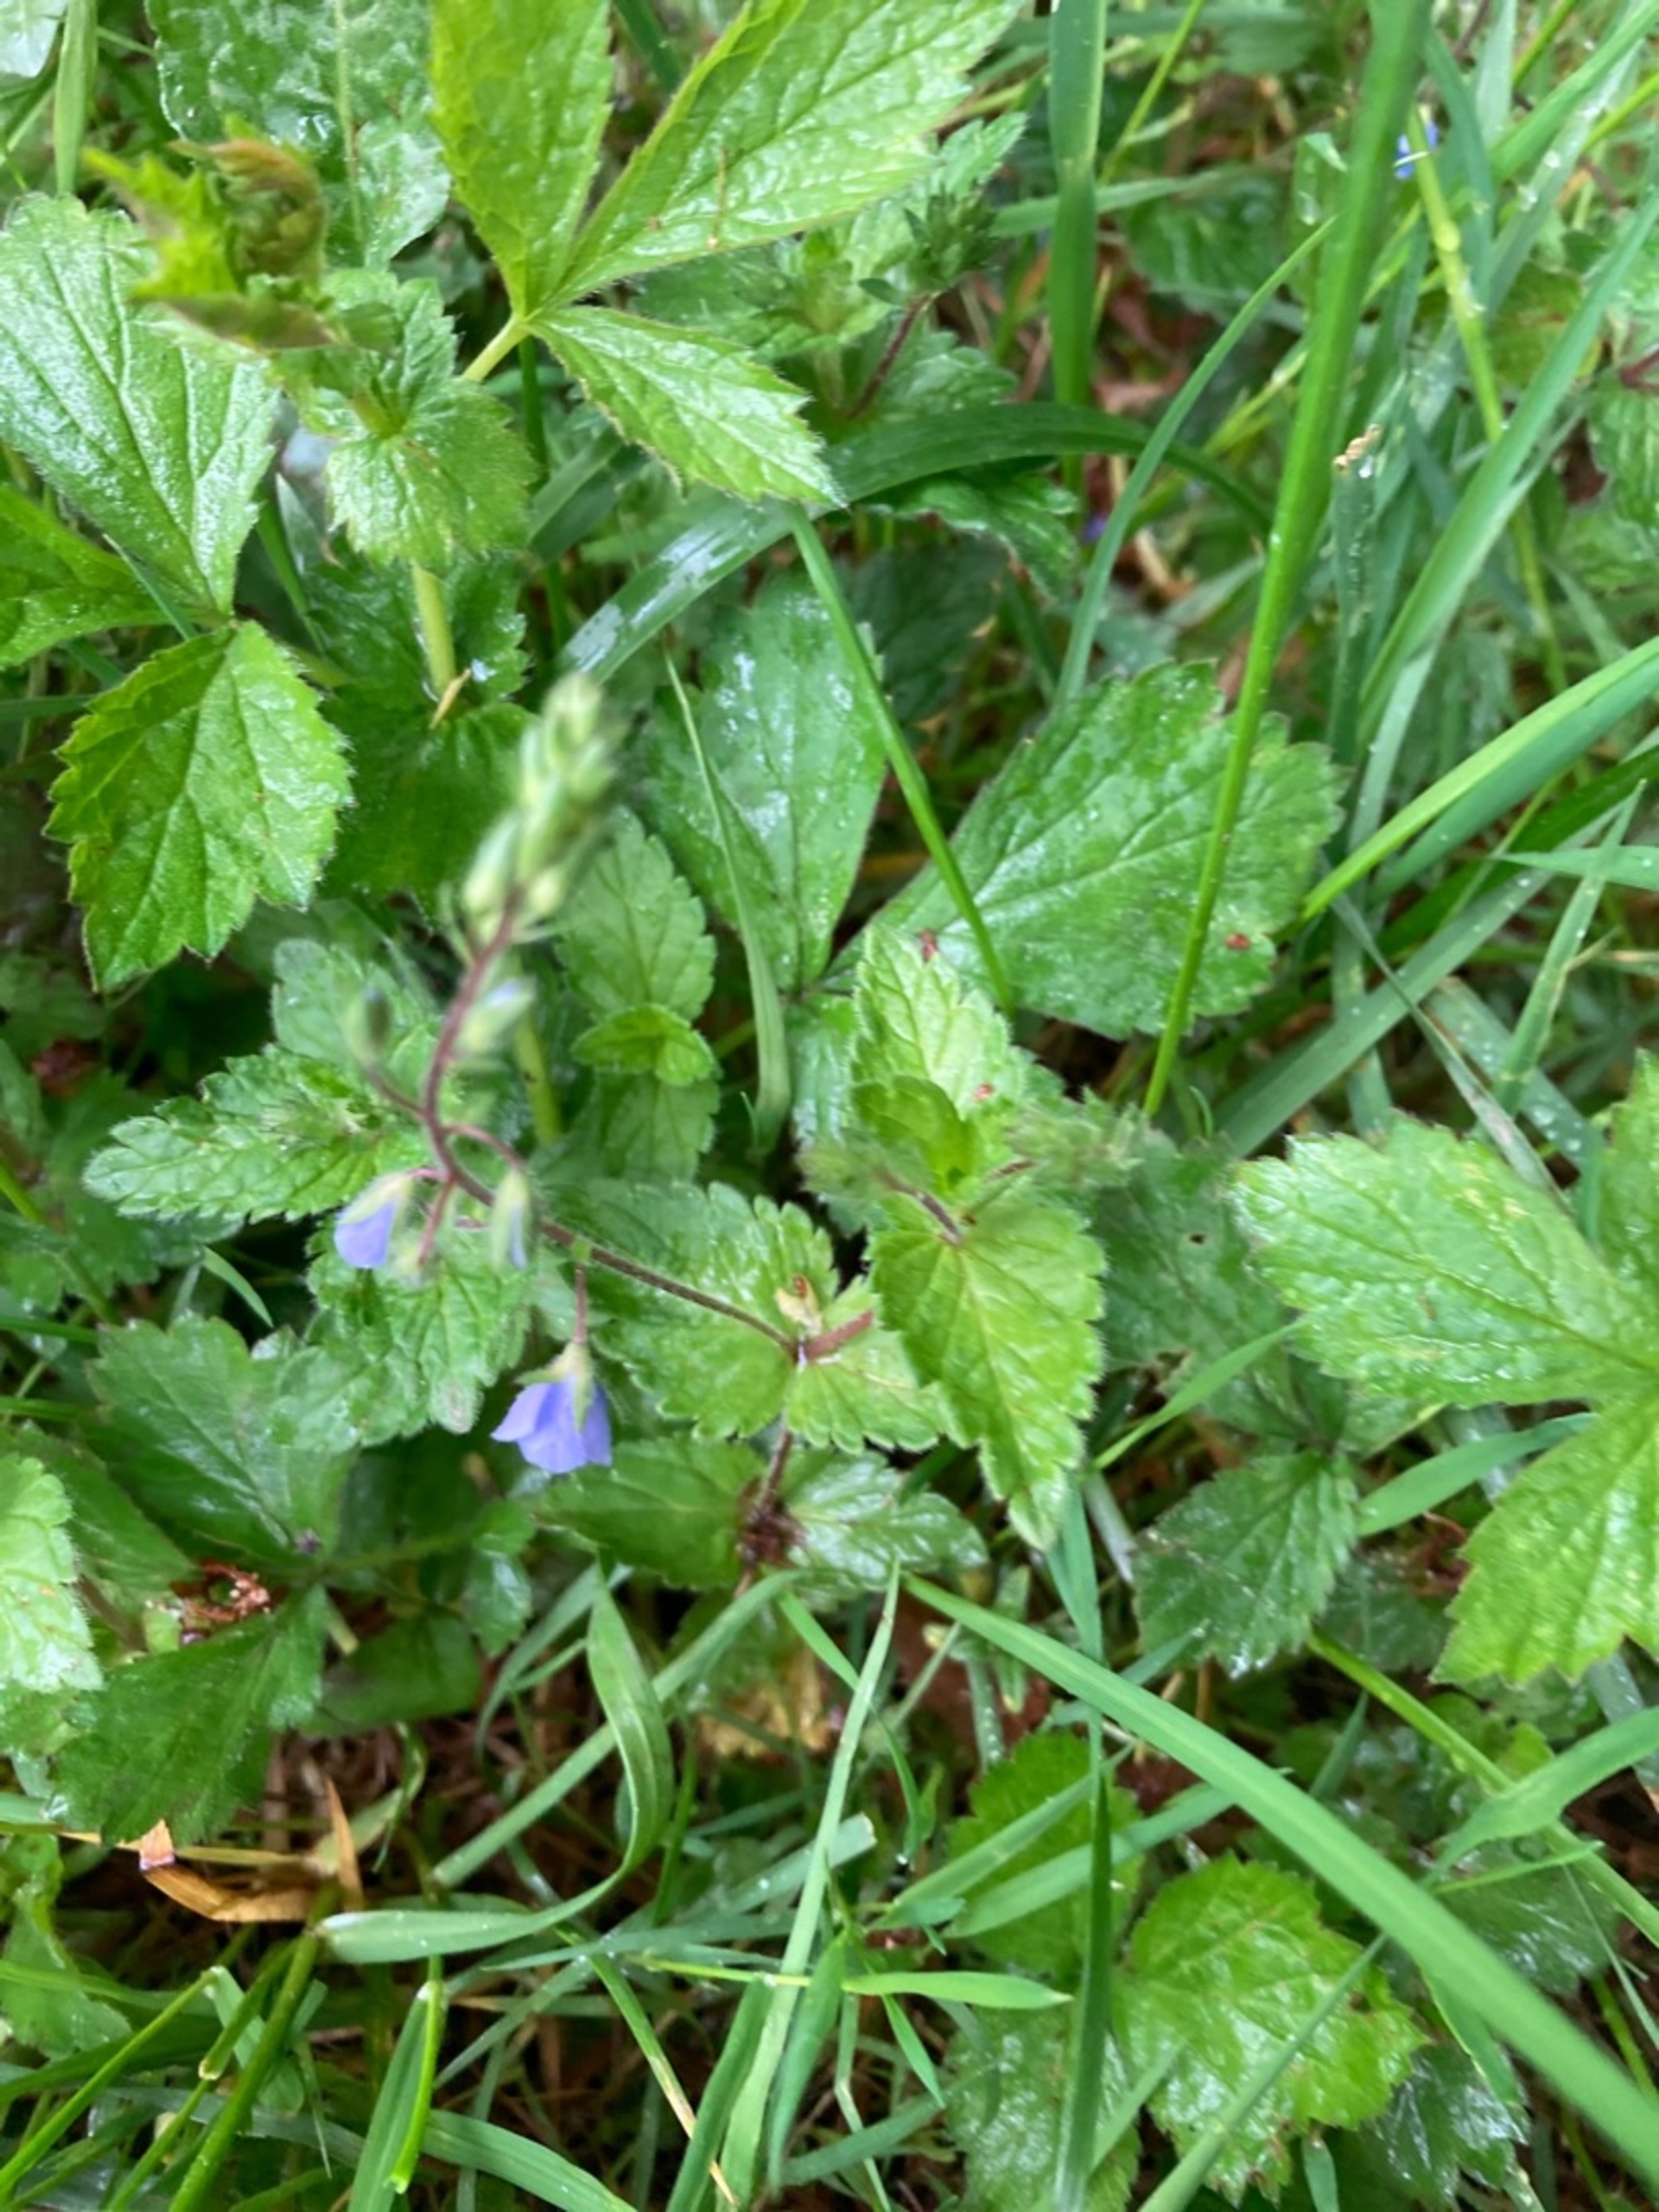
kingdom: Plantae
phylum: Tracheophyta
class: Magnoliopsida
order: Lamiales
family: Plantaginaceae
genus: Veronica
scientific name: Veronica chamaedrys
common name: Tveskægget ærenpris
